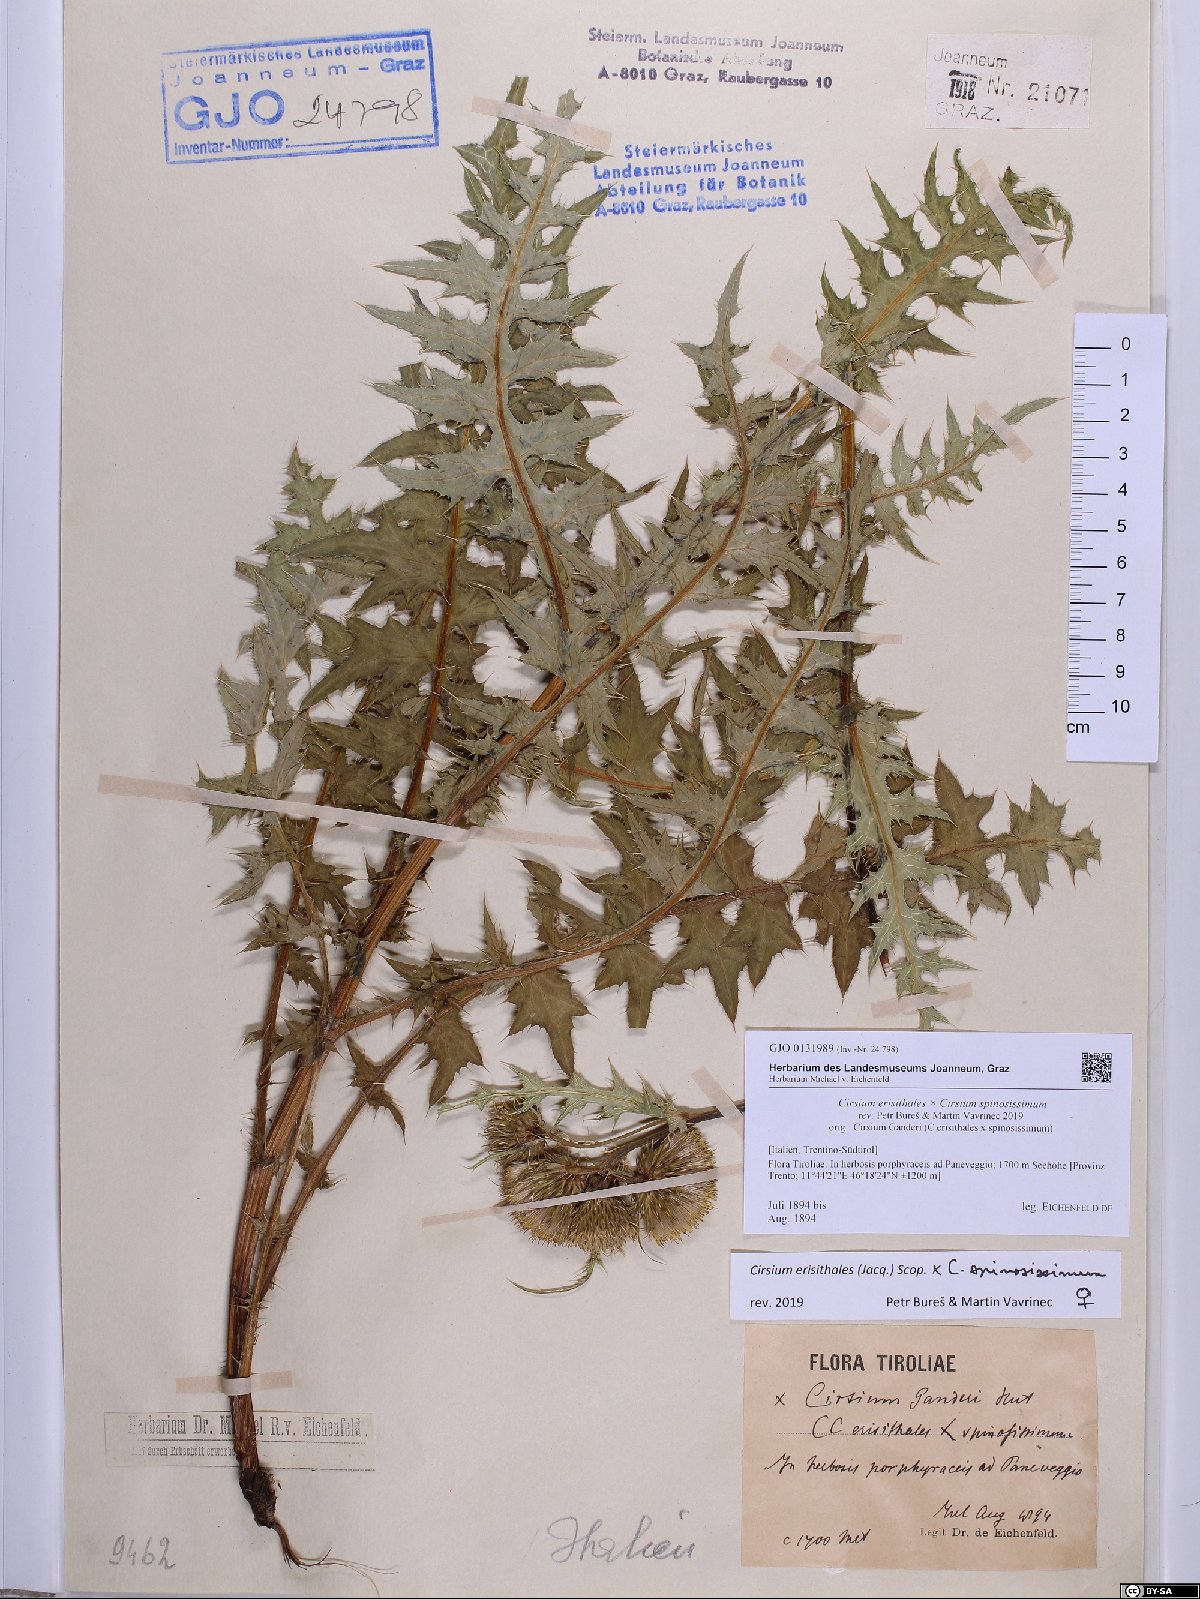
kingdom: Plantae
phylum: Tracheophyta
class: Magnoliopsida
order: Asterales
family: Asteraceae
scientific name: Asteraceae
